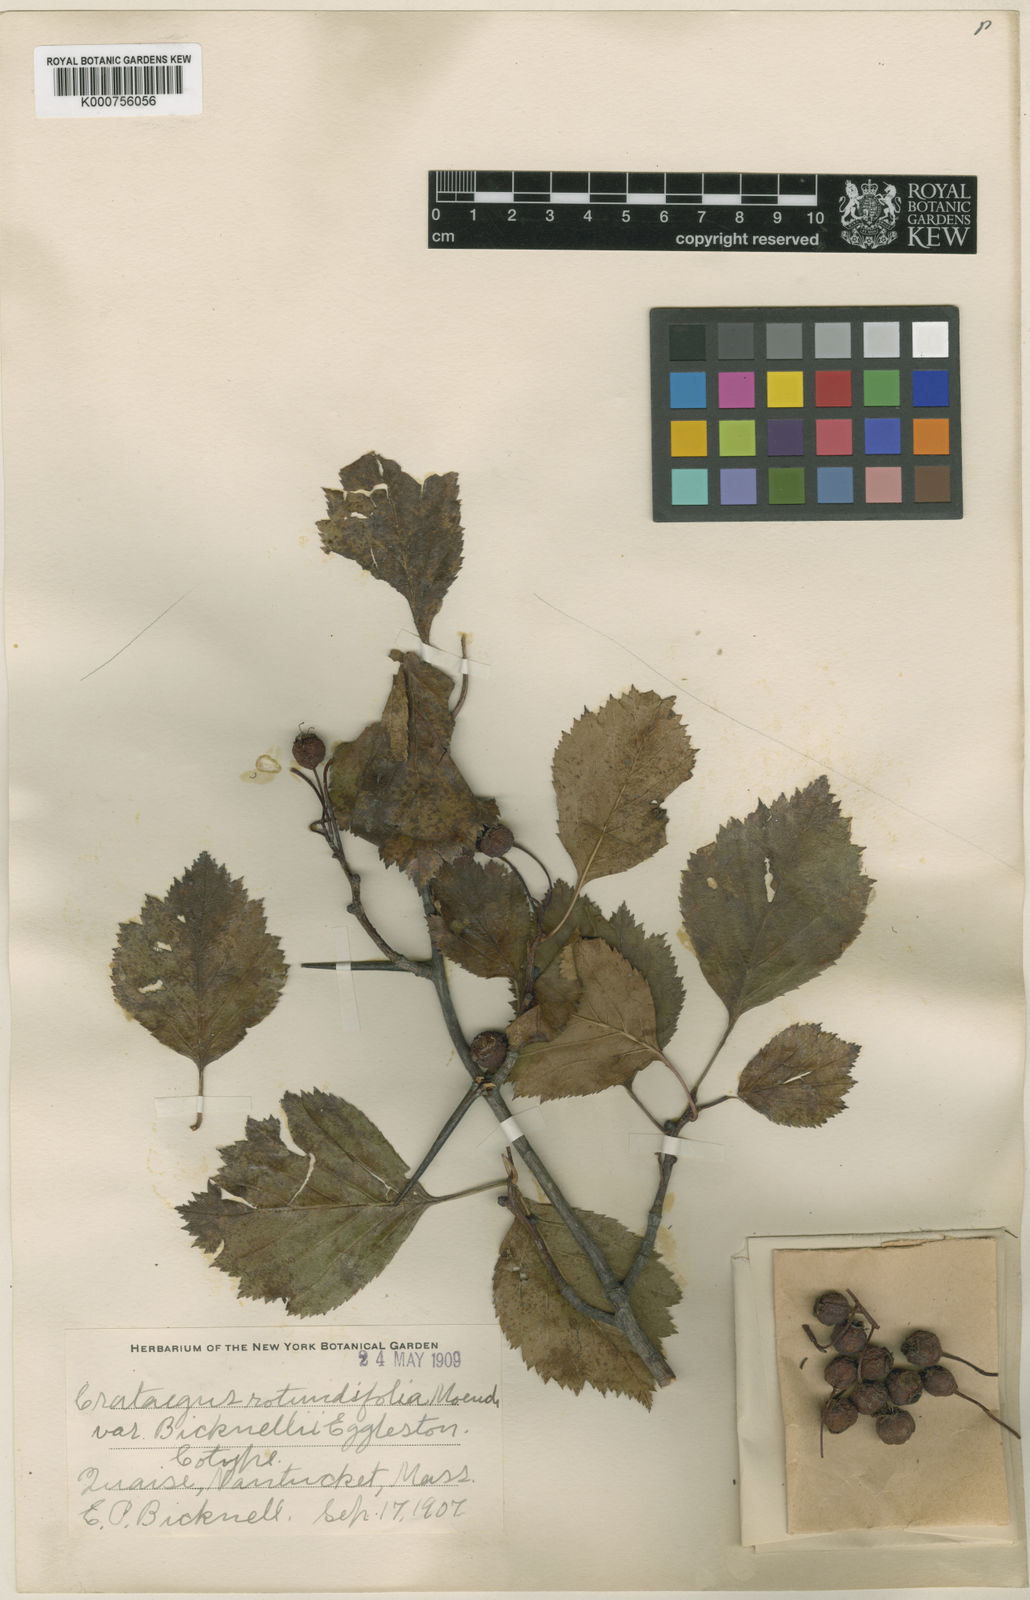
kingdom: Plantae
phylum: Tracheophyta
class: Magnoliopsida
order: Rosales
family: Rosaceae
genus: Crataegus
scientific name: Crataegus chrysocarpa
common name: Fire-berry hawthorn
